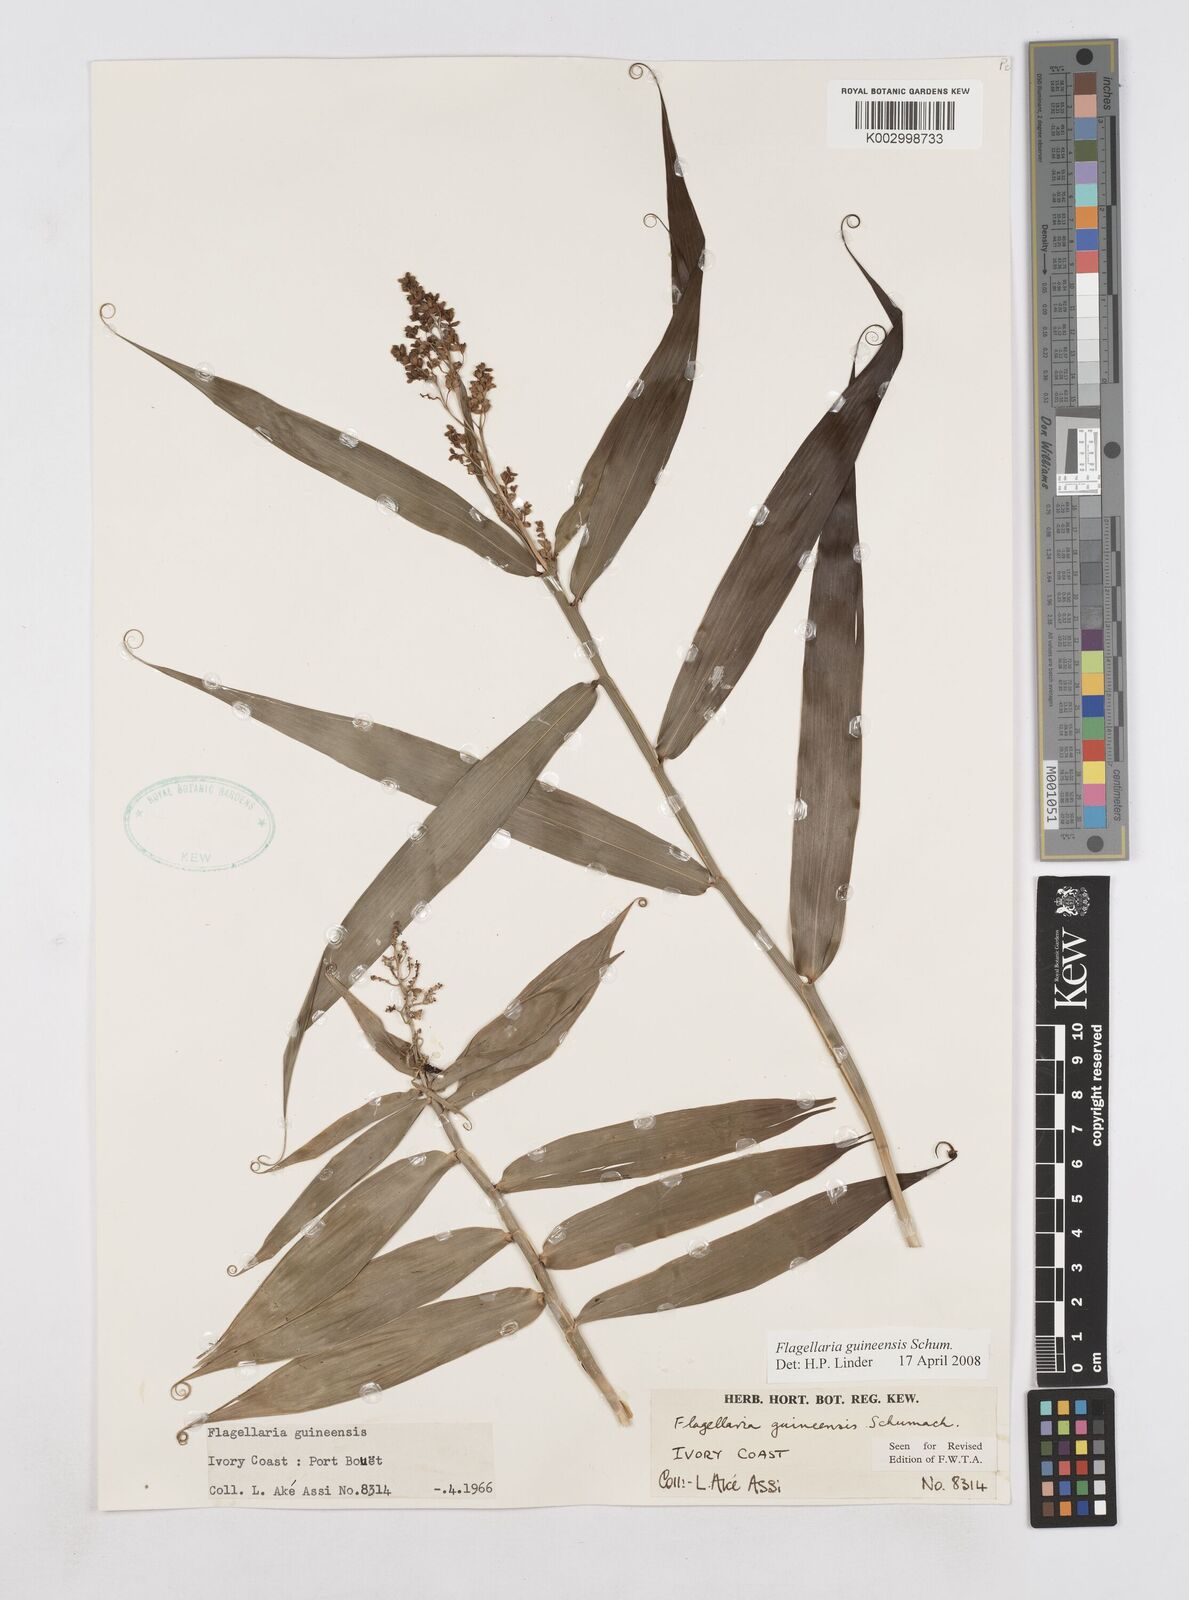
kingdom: Plantae
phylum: Tracheophyta
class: Liliopsida
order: Poales
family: Flagellariaceae
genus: Flagellaria
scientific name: Flagellaria guineensis
